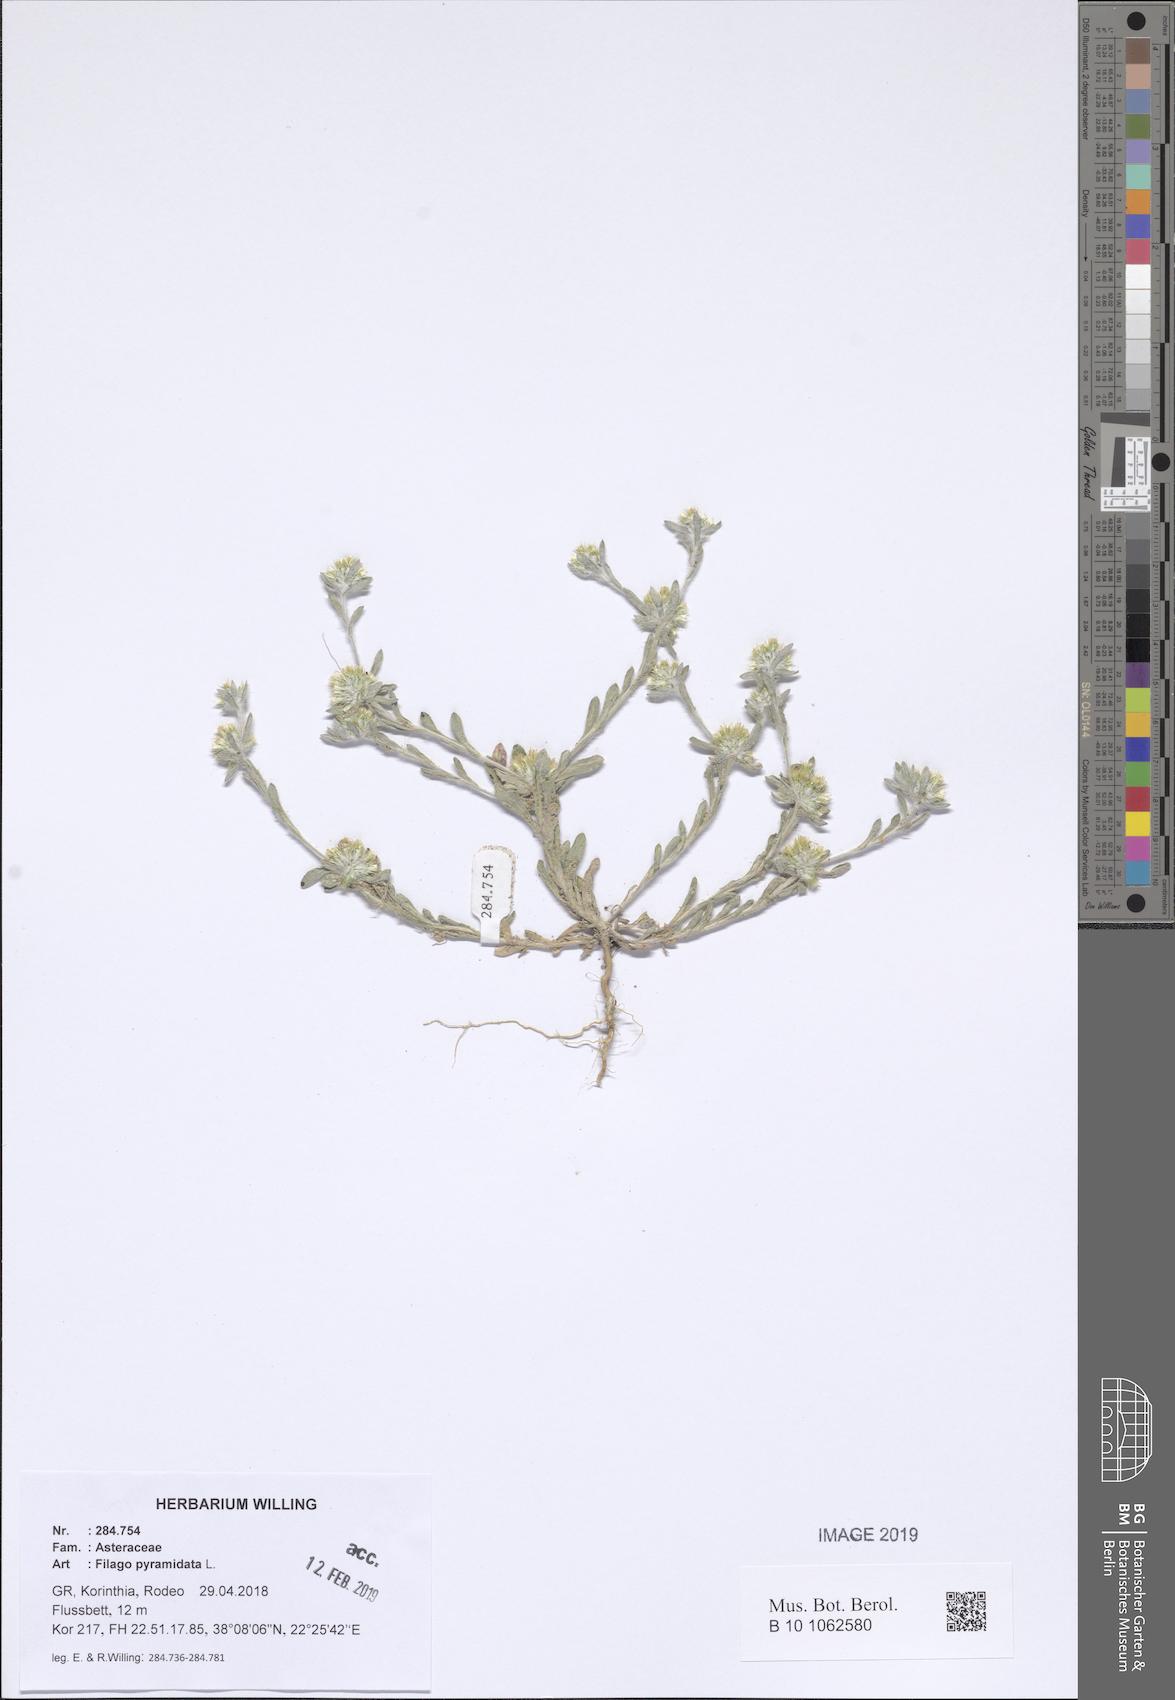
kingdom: Plantae
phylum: Tracheophyta
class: Magnoliopsida
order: Asterales
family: Asteraceae
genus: Filago
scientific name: Filago pyramidata
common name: Broad-leaved cudweed
